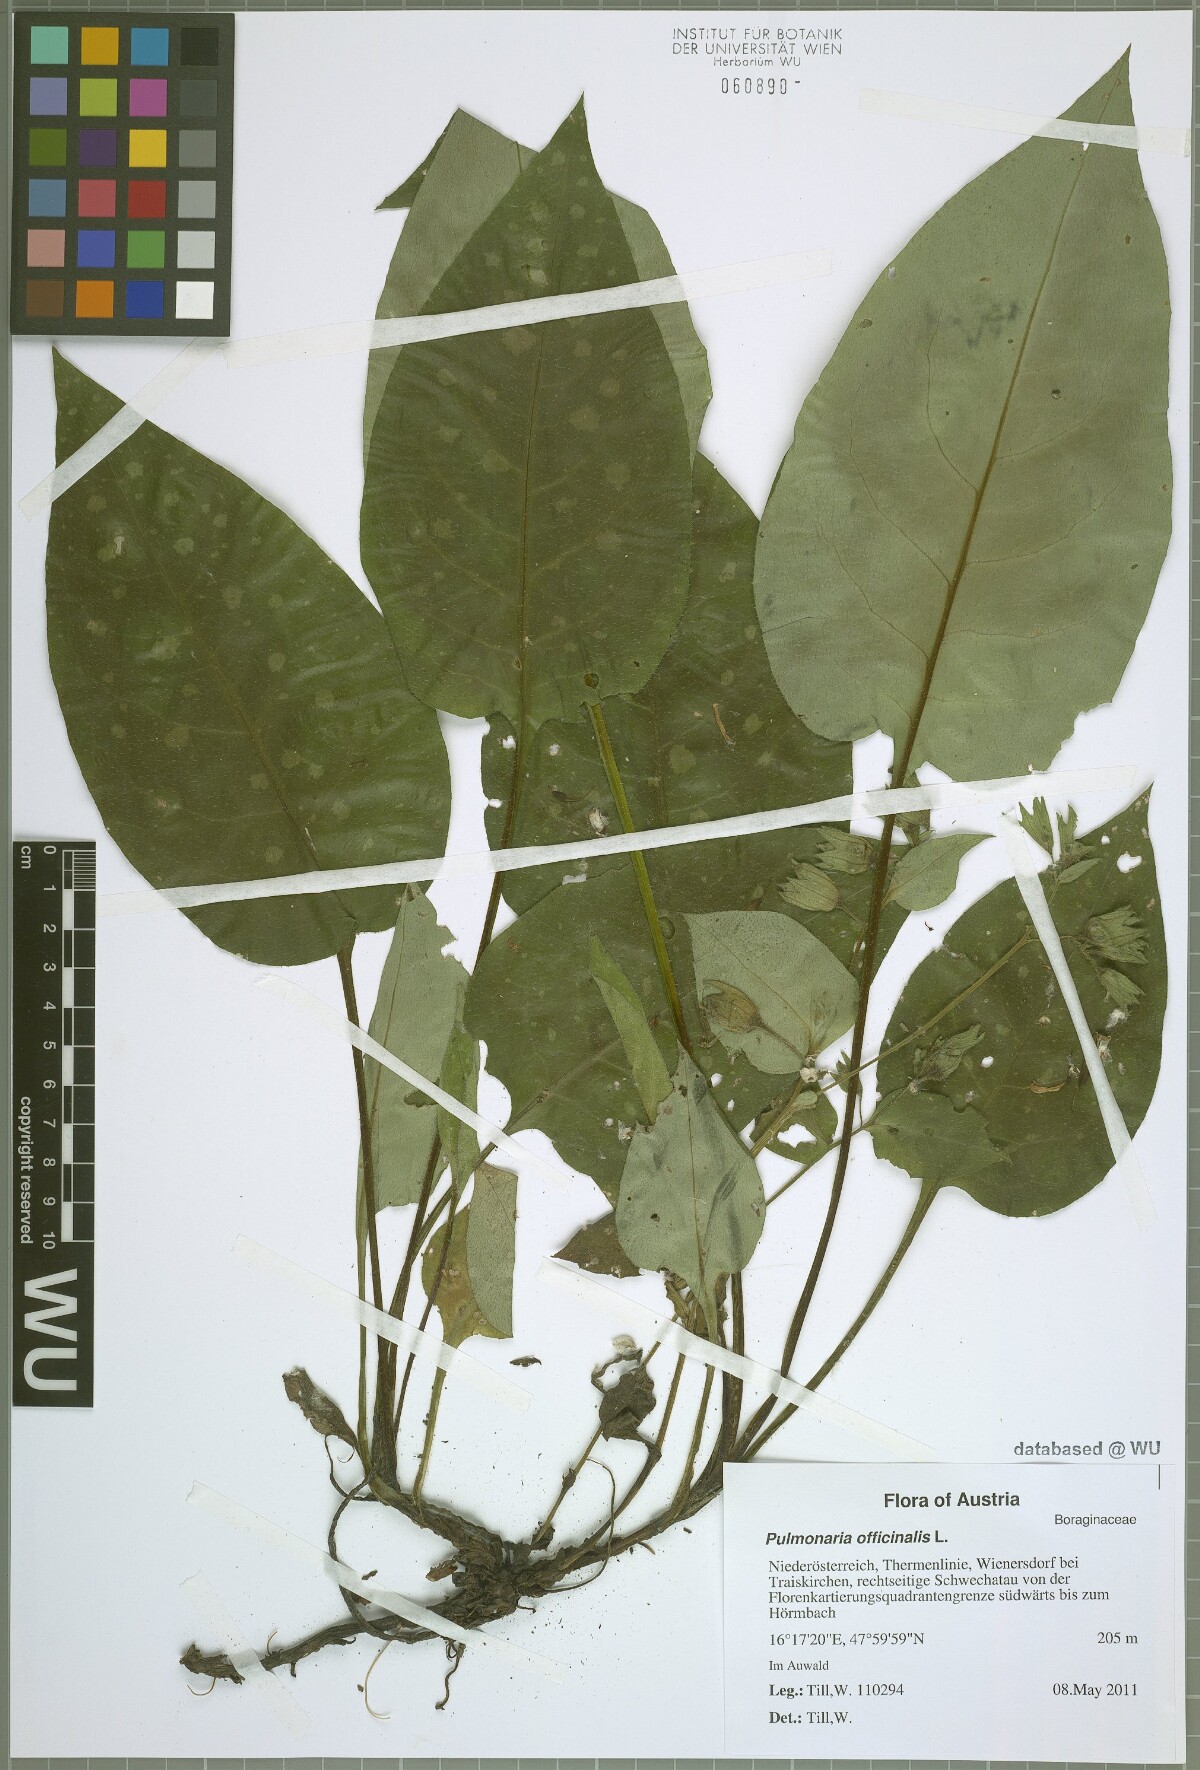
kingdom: Plantae
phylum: Tracheophyta
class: Magnoliopsida
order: Boraginales
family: Boraginaceae
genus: Pulmonaria
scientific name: Pulmonaria officinalis
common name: Lungwort
